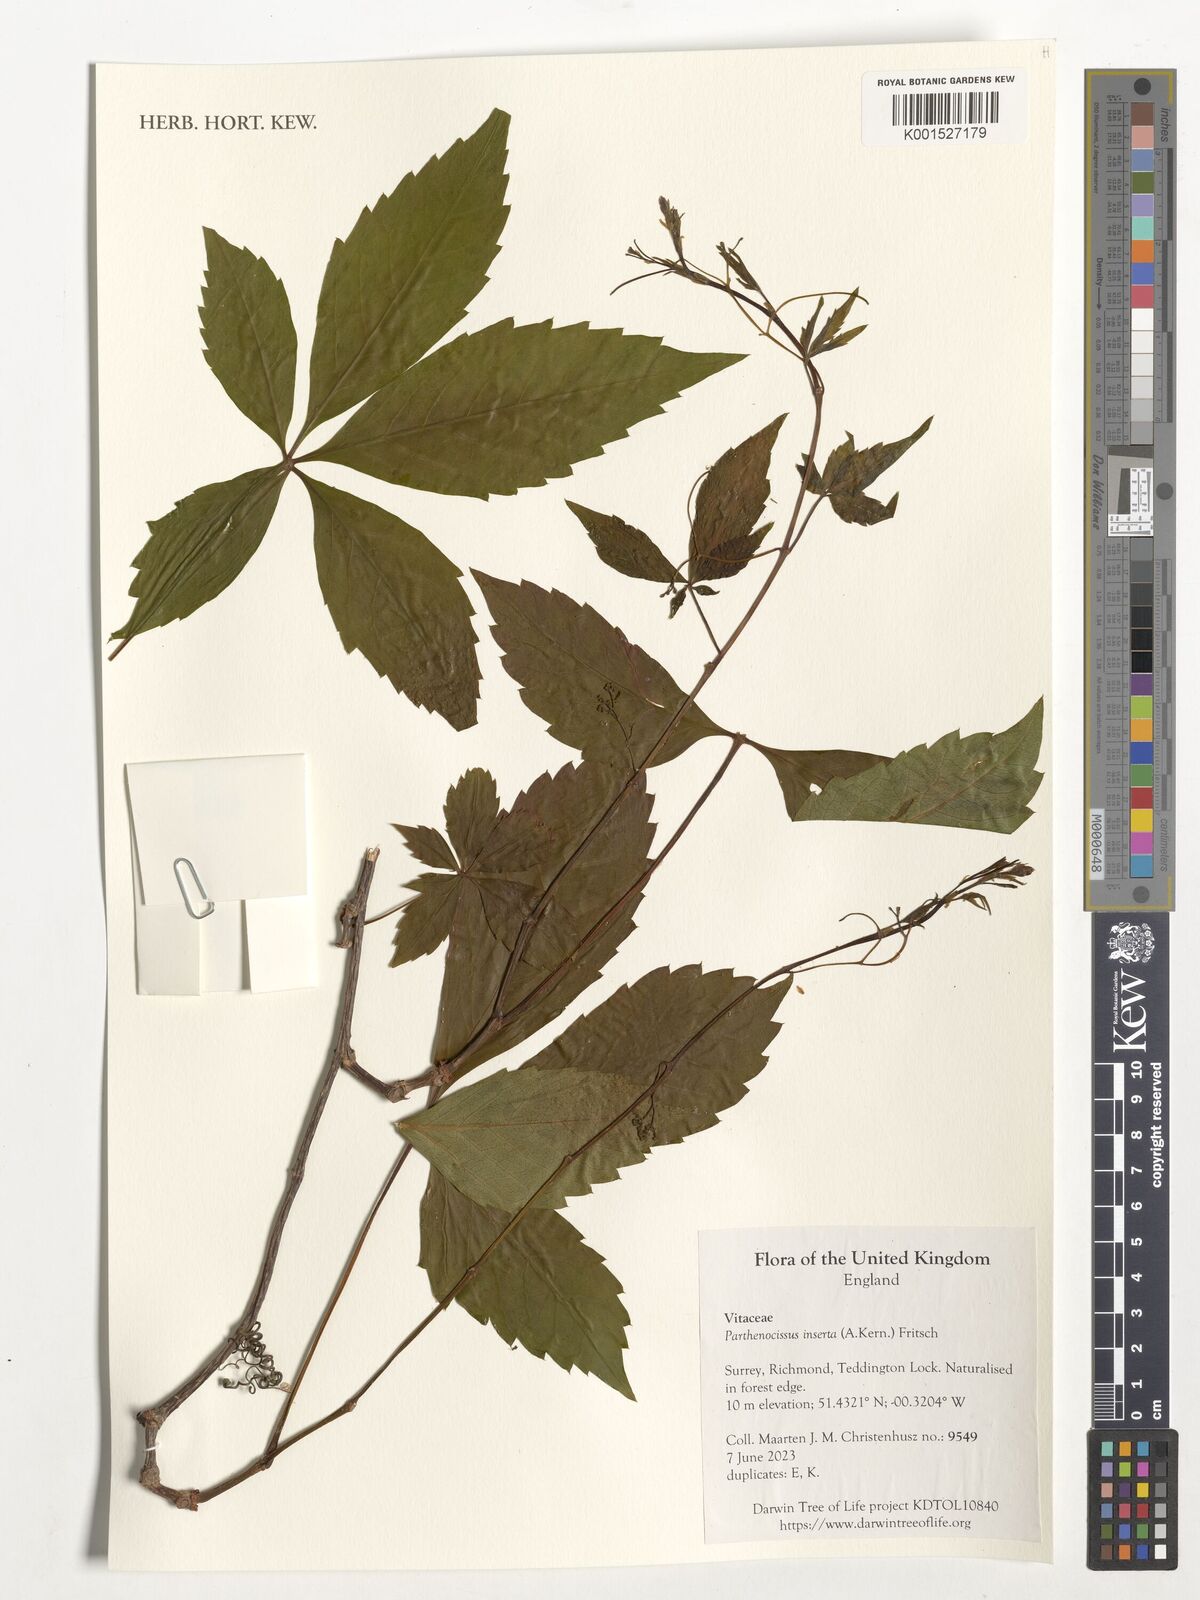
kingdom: Plantae
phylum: Tracheophyta
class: Magnoliopsida
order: Vitales
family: Vitaceae
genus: Parthenocissus
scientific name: Parthenocissus inserta
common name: False virginia-creeper
